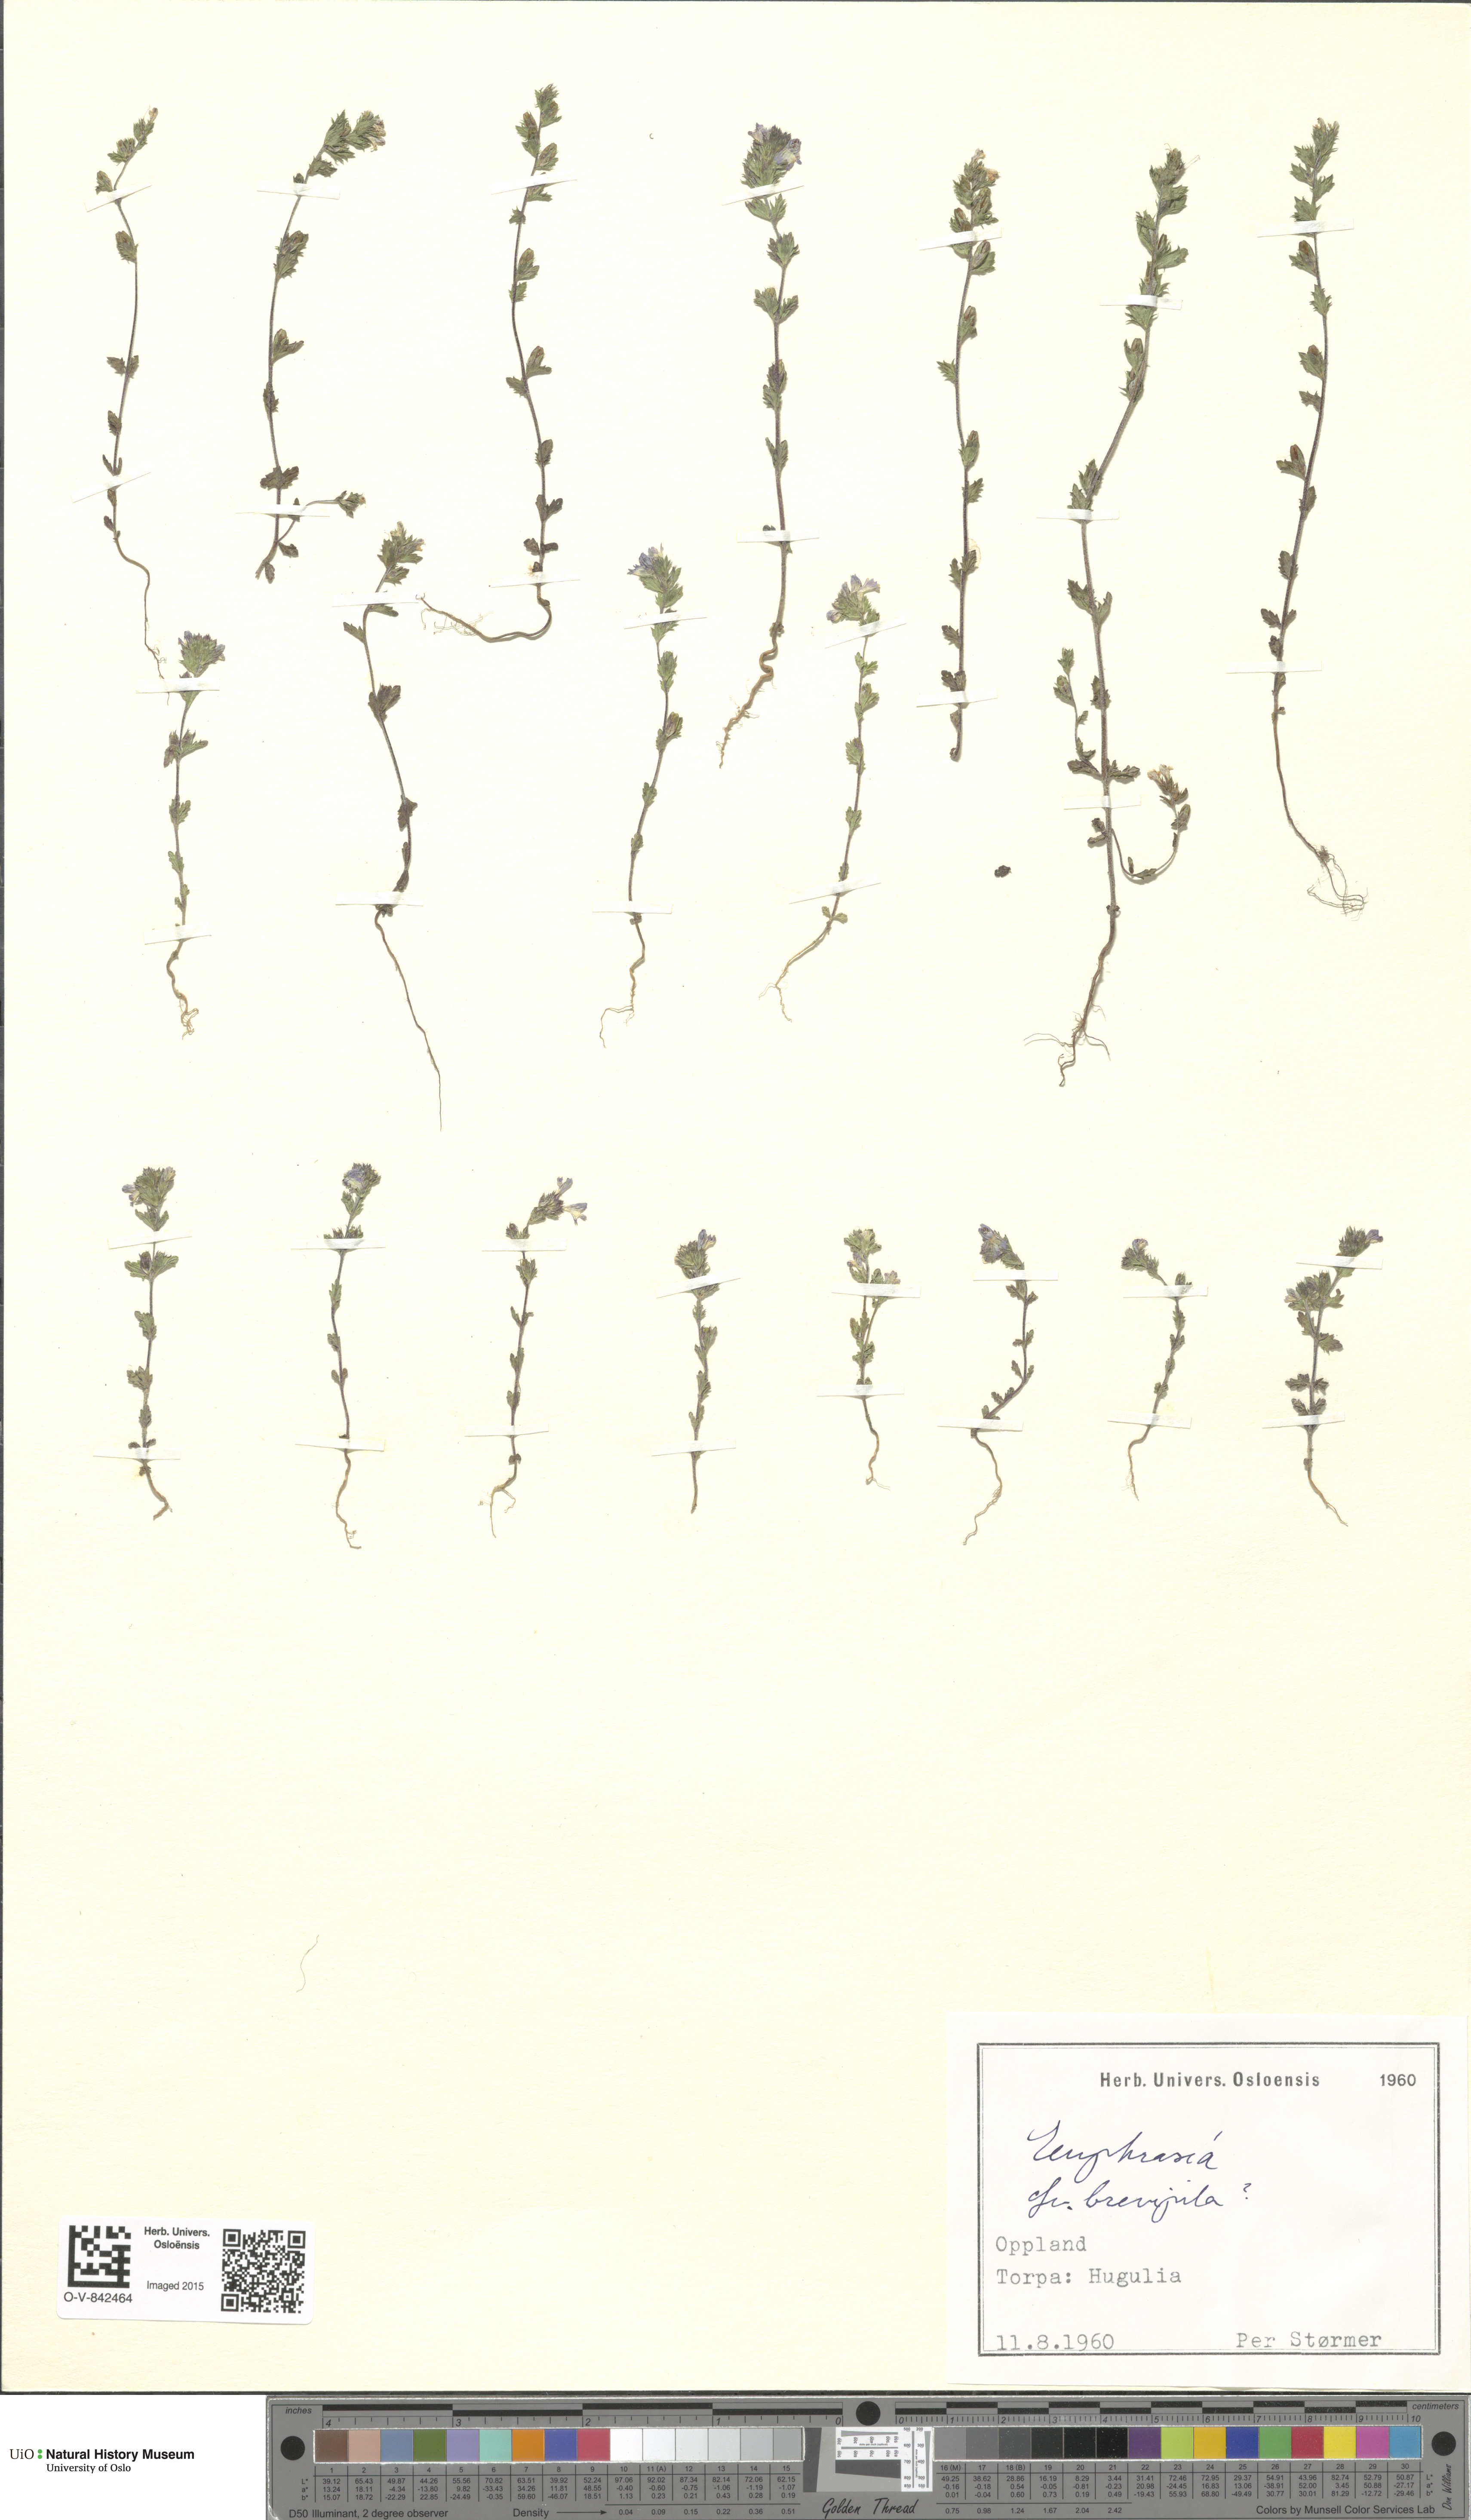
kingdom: Plantae
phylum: Tracheophyta
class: Magnoliopsida
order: Lamiales
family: Orobanchaceae
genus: Euphrasia
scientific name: Euphrasia vernalis
